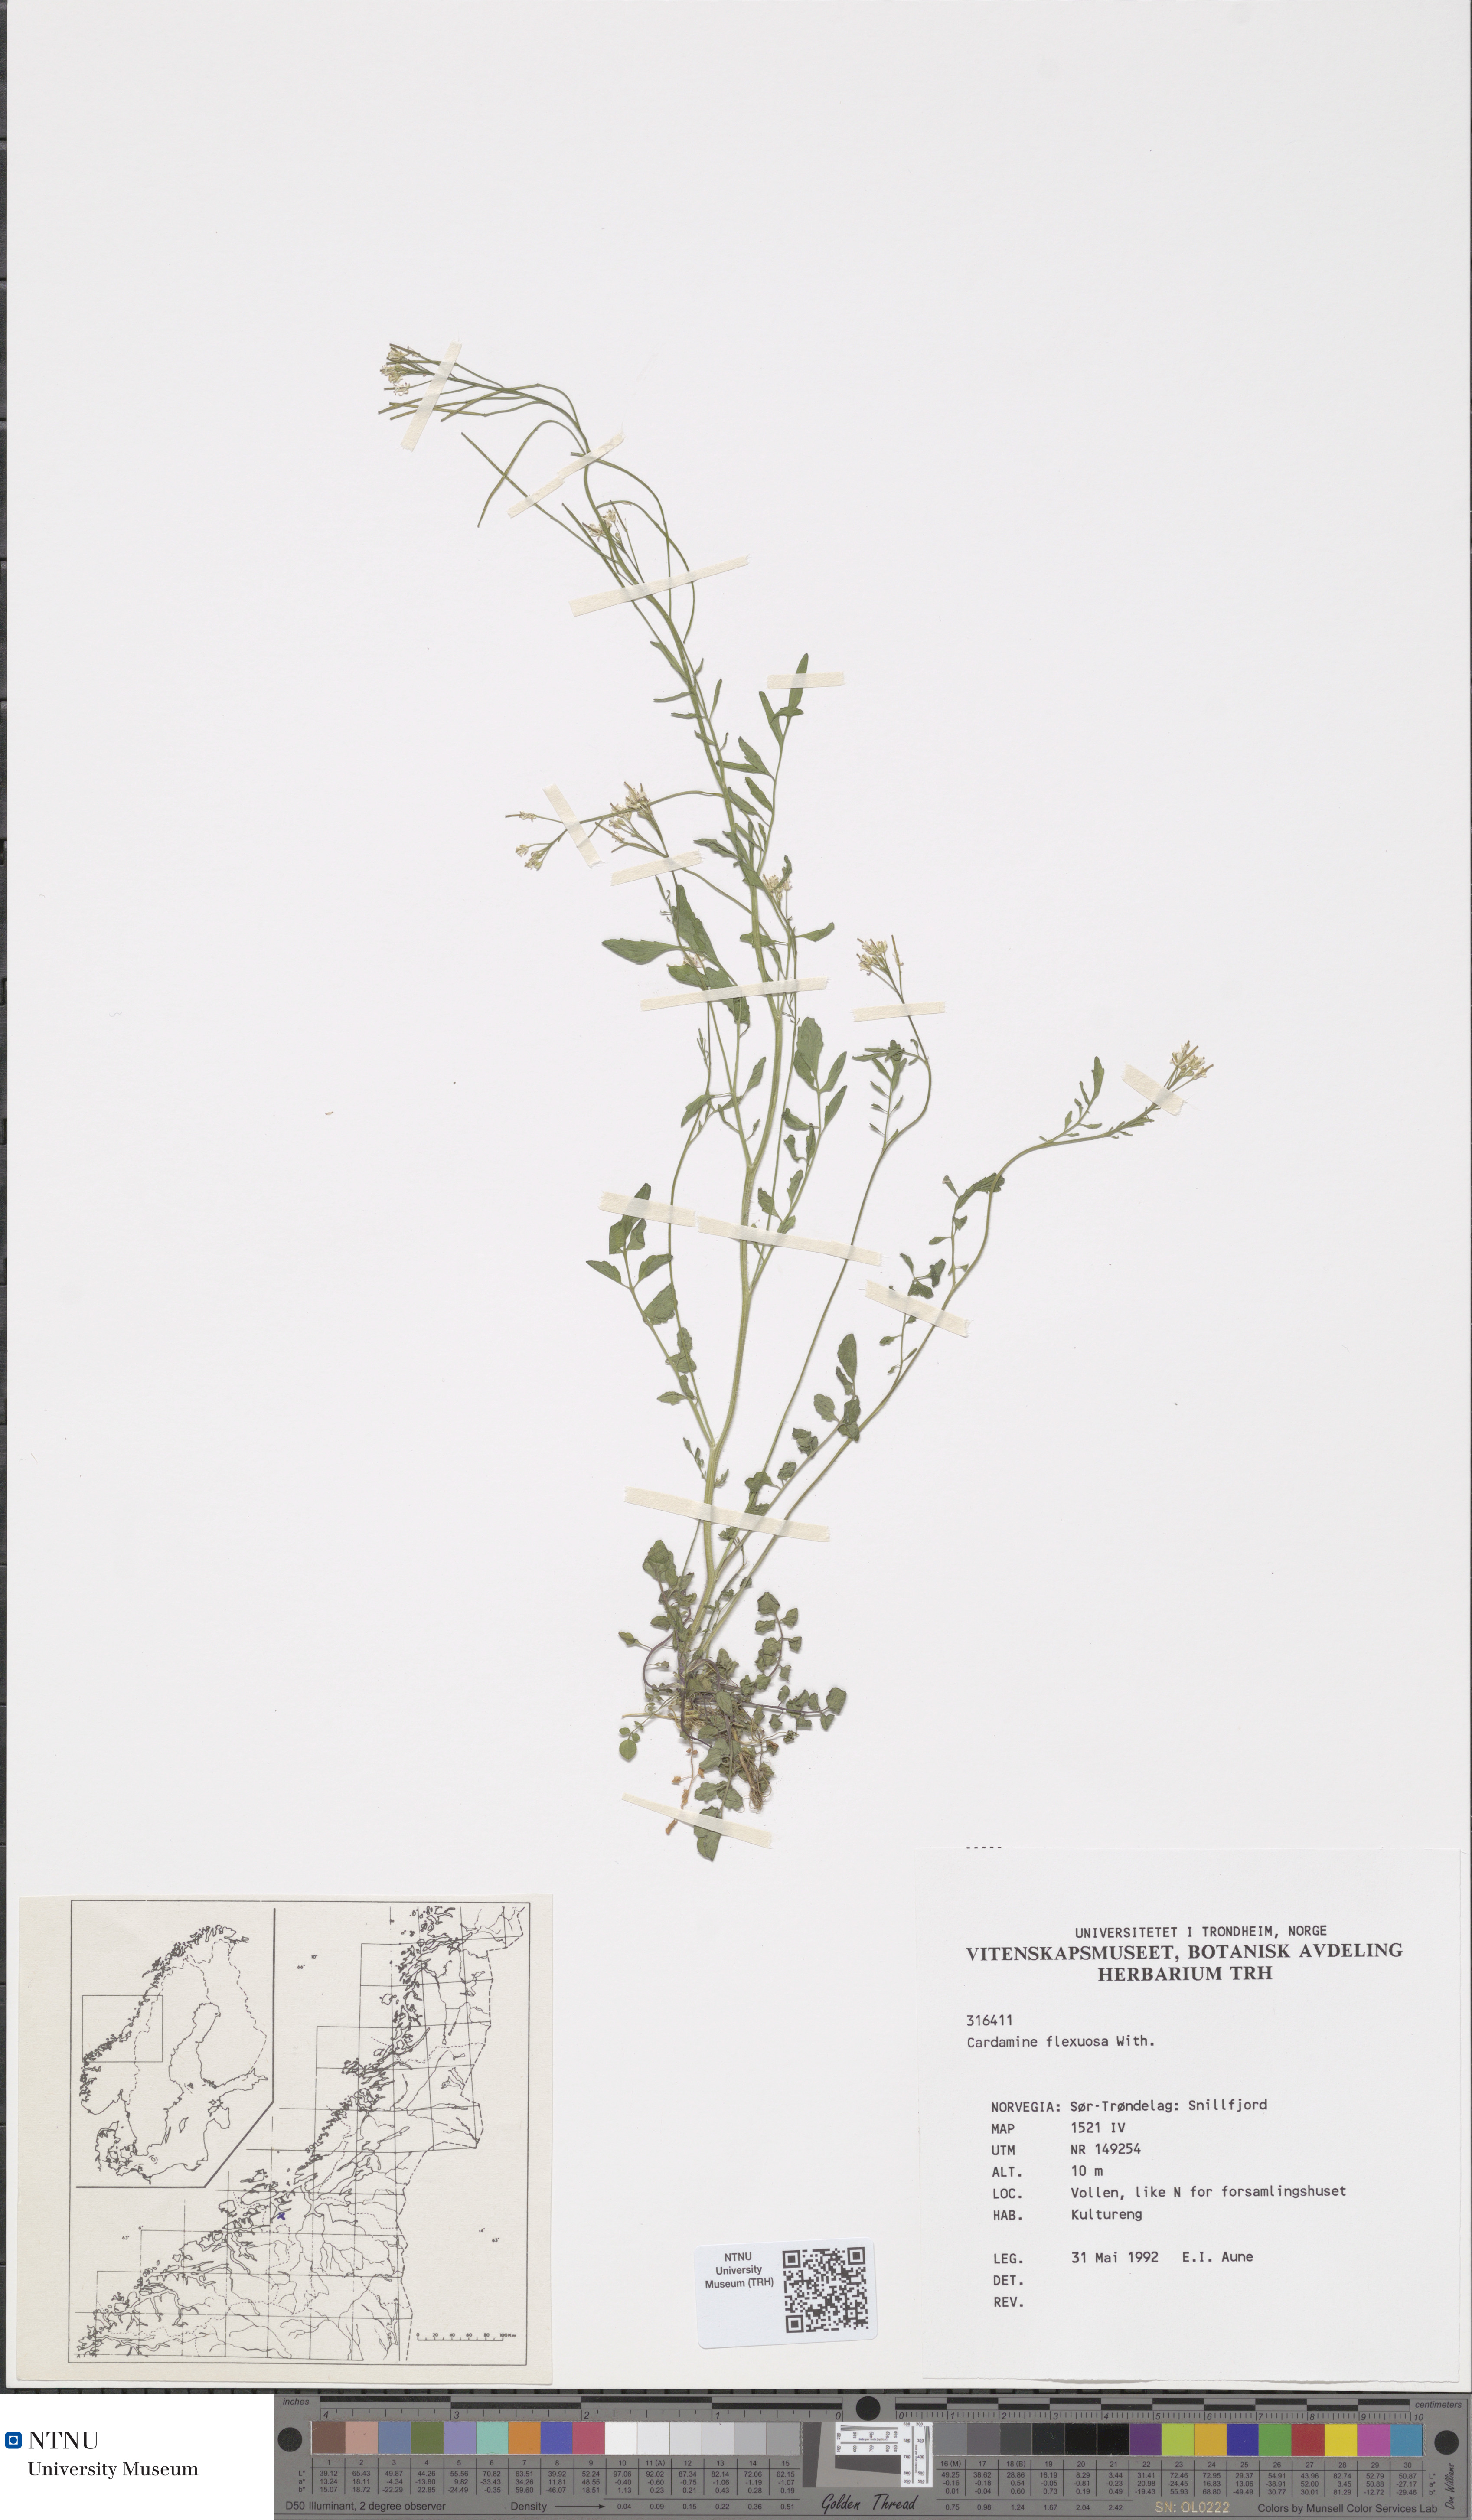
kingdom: Plantae
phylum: Tracheophyta
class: Magnoliopsida
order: Brassicales
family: Brassicaceae
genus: Cardamine
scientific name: Cardamine flexuosa
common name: Woodland bittercress
